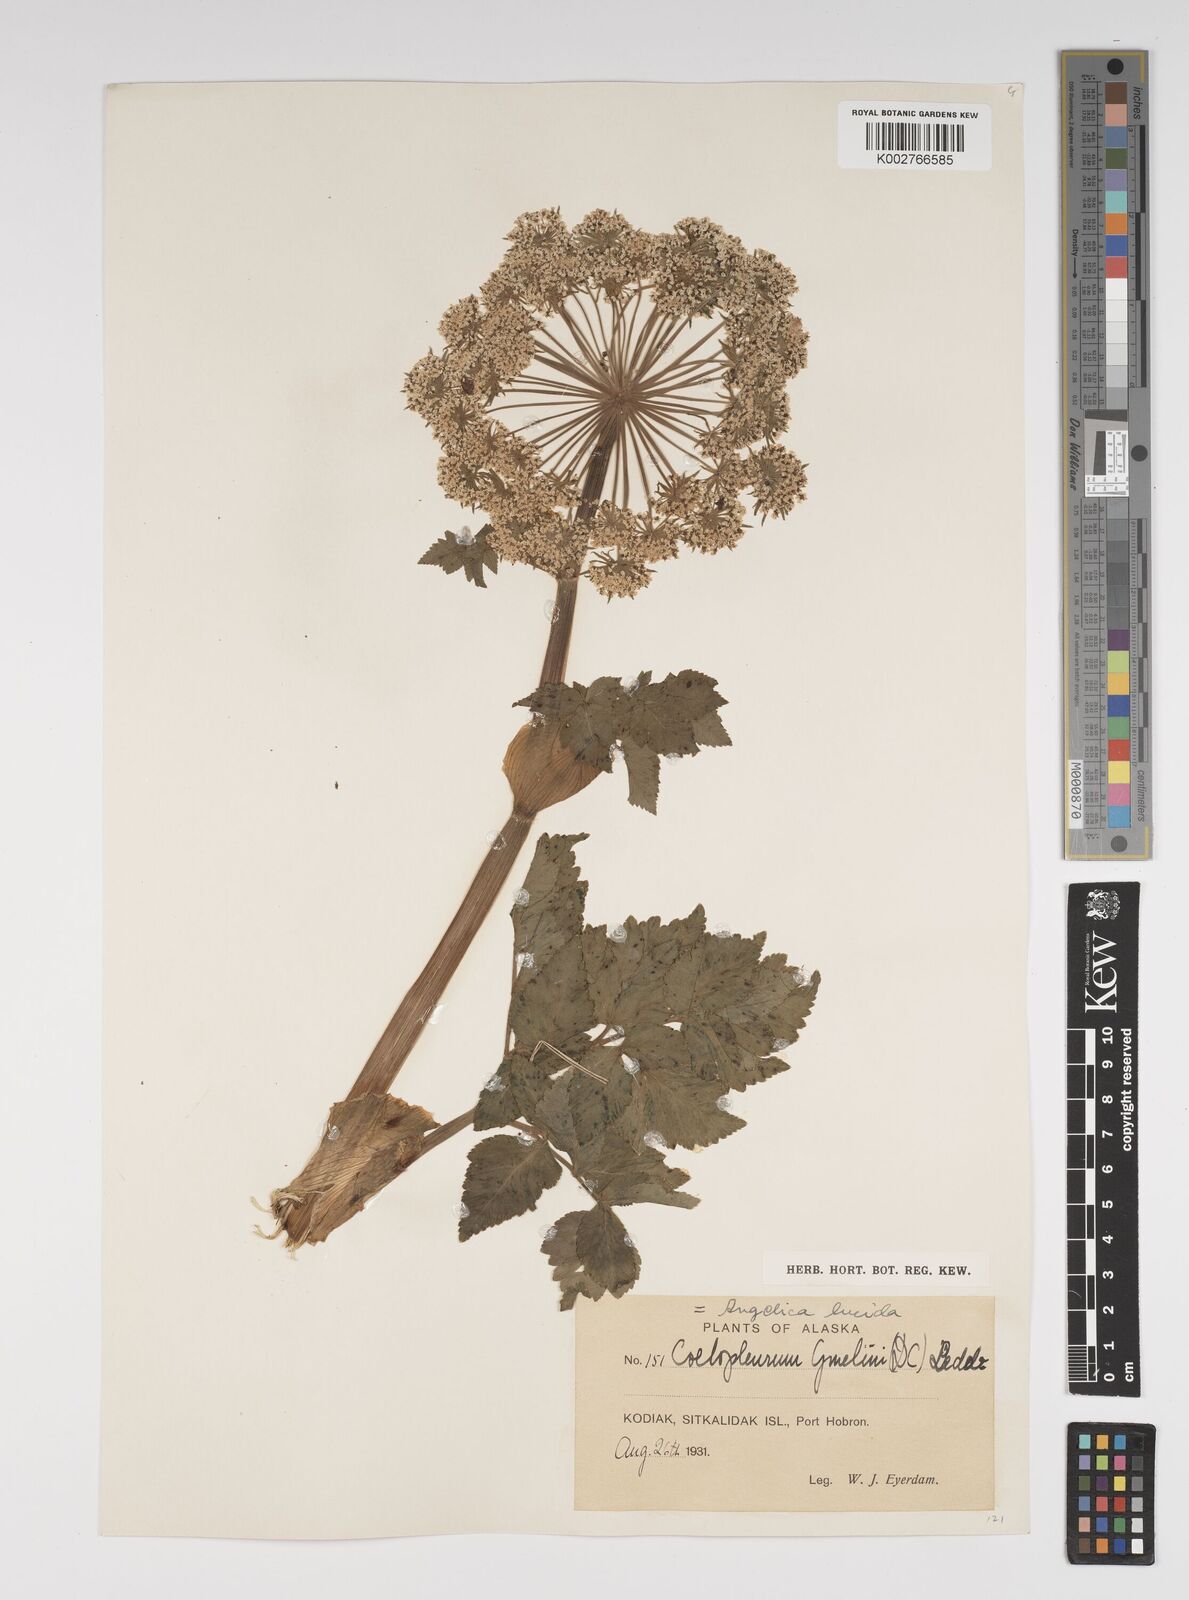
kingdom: Plantae
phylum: Tracheophyta
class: Magnoliopsida
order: Apiales
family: Apiaceae
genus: Angelica
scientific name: Angelica lucida
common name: Seabeach angelica
